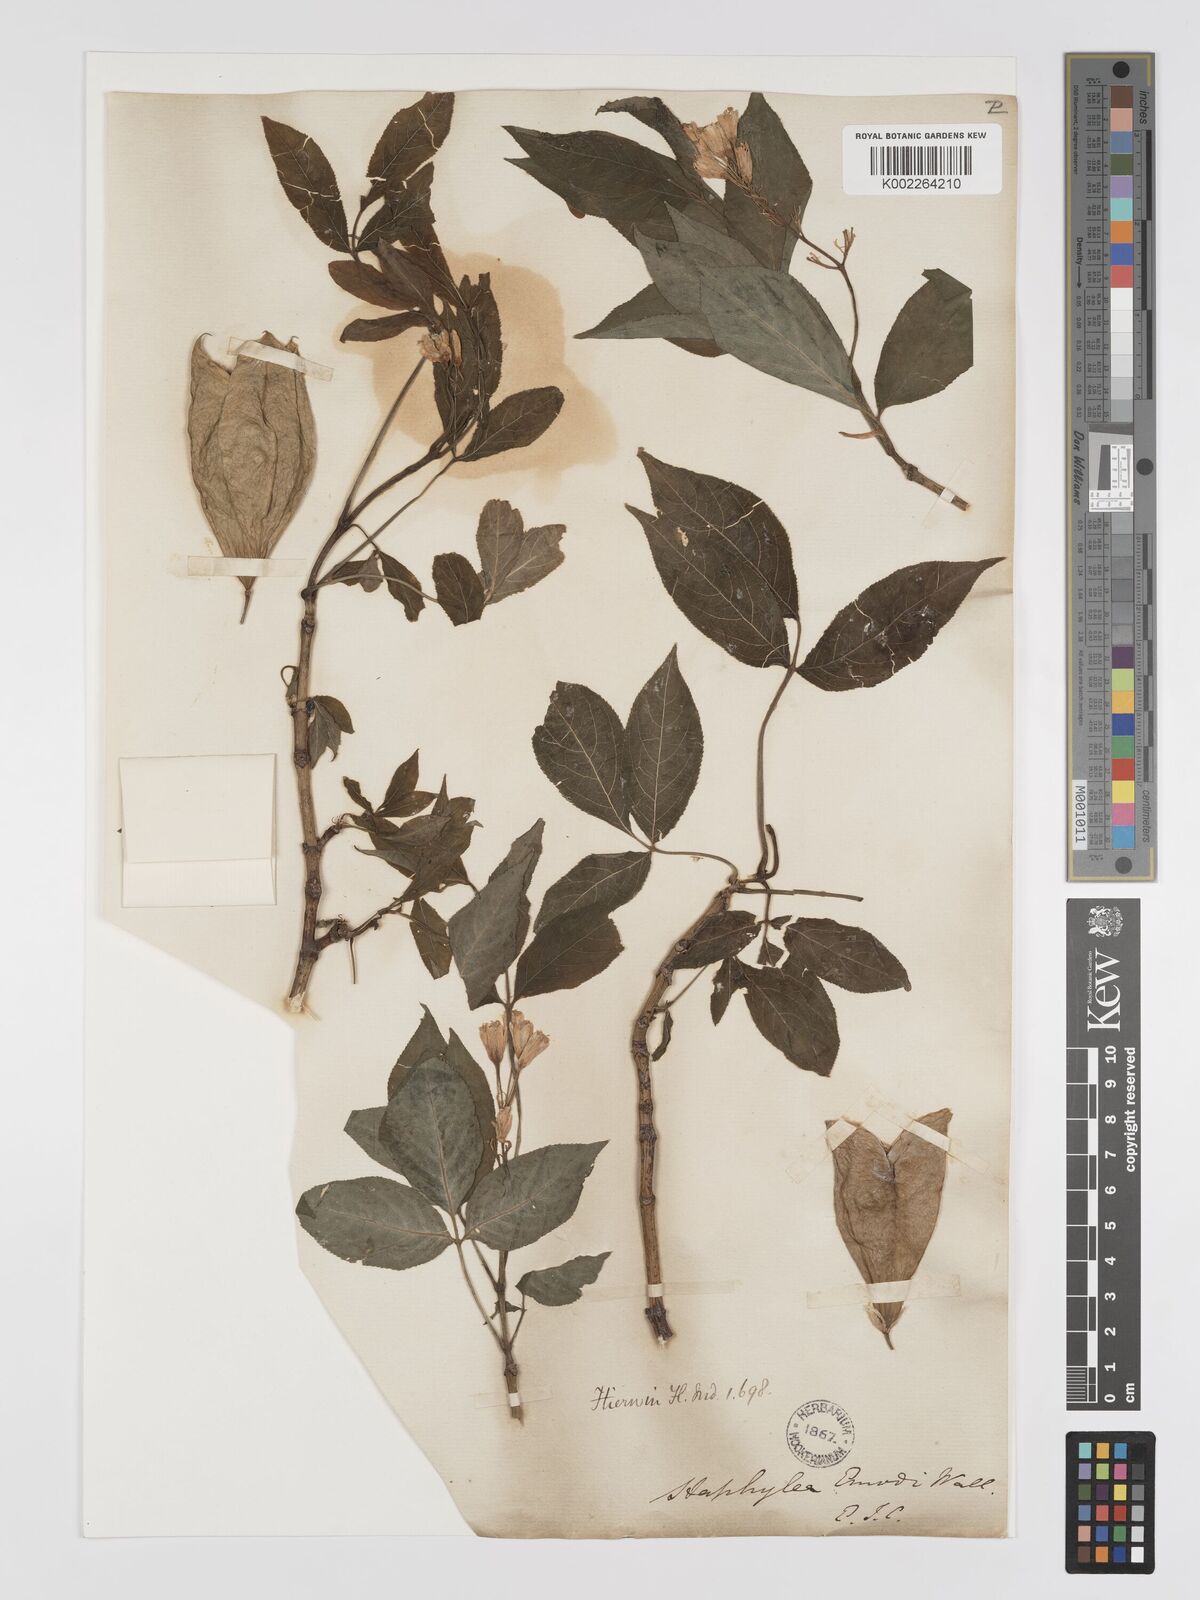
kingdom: Plantae
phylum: Tracheophyta
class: Magnoliopsida
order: Crossosomatales
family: Staphyleaceae
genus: Staphylea
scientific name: Staphylea emodi
